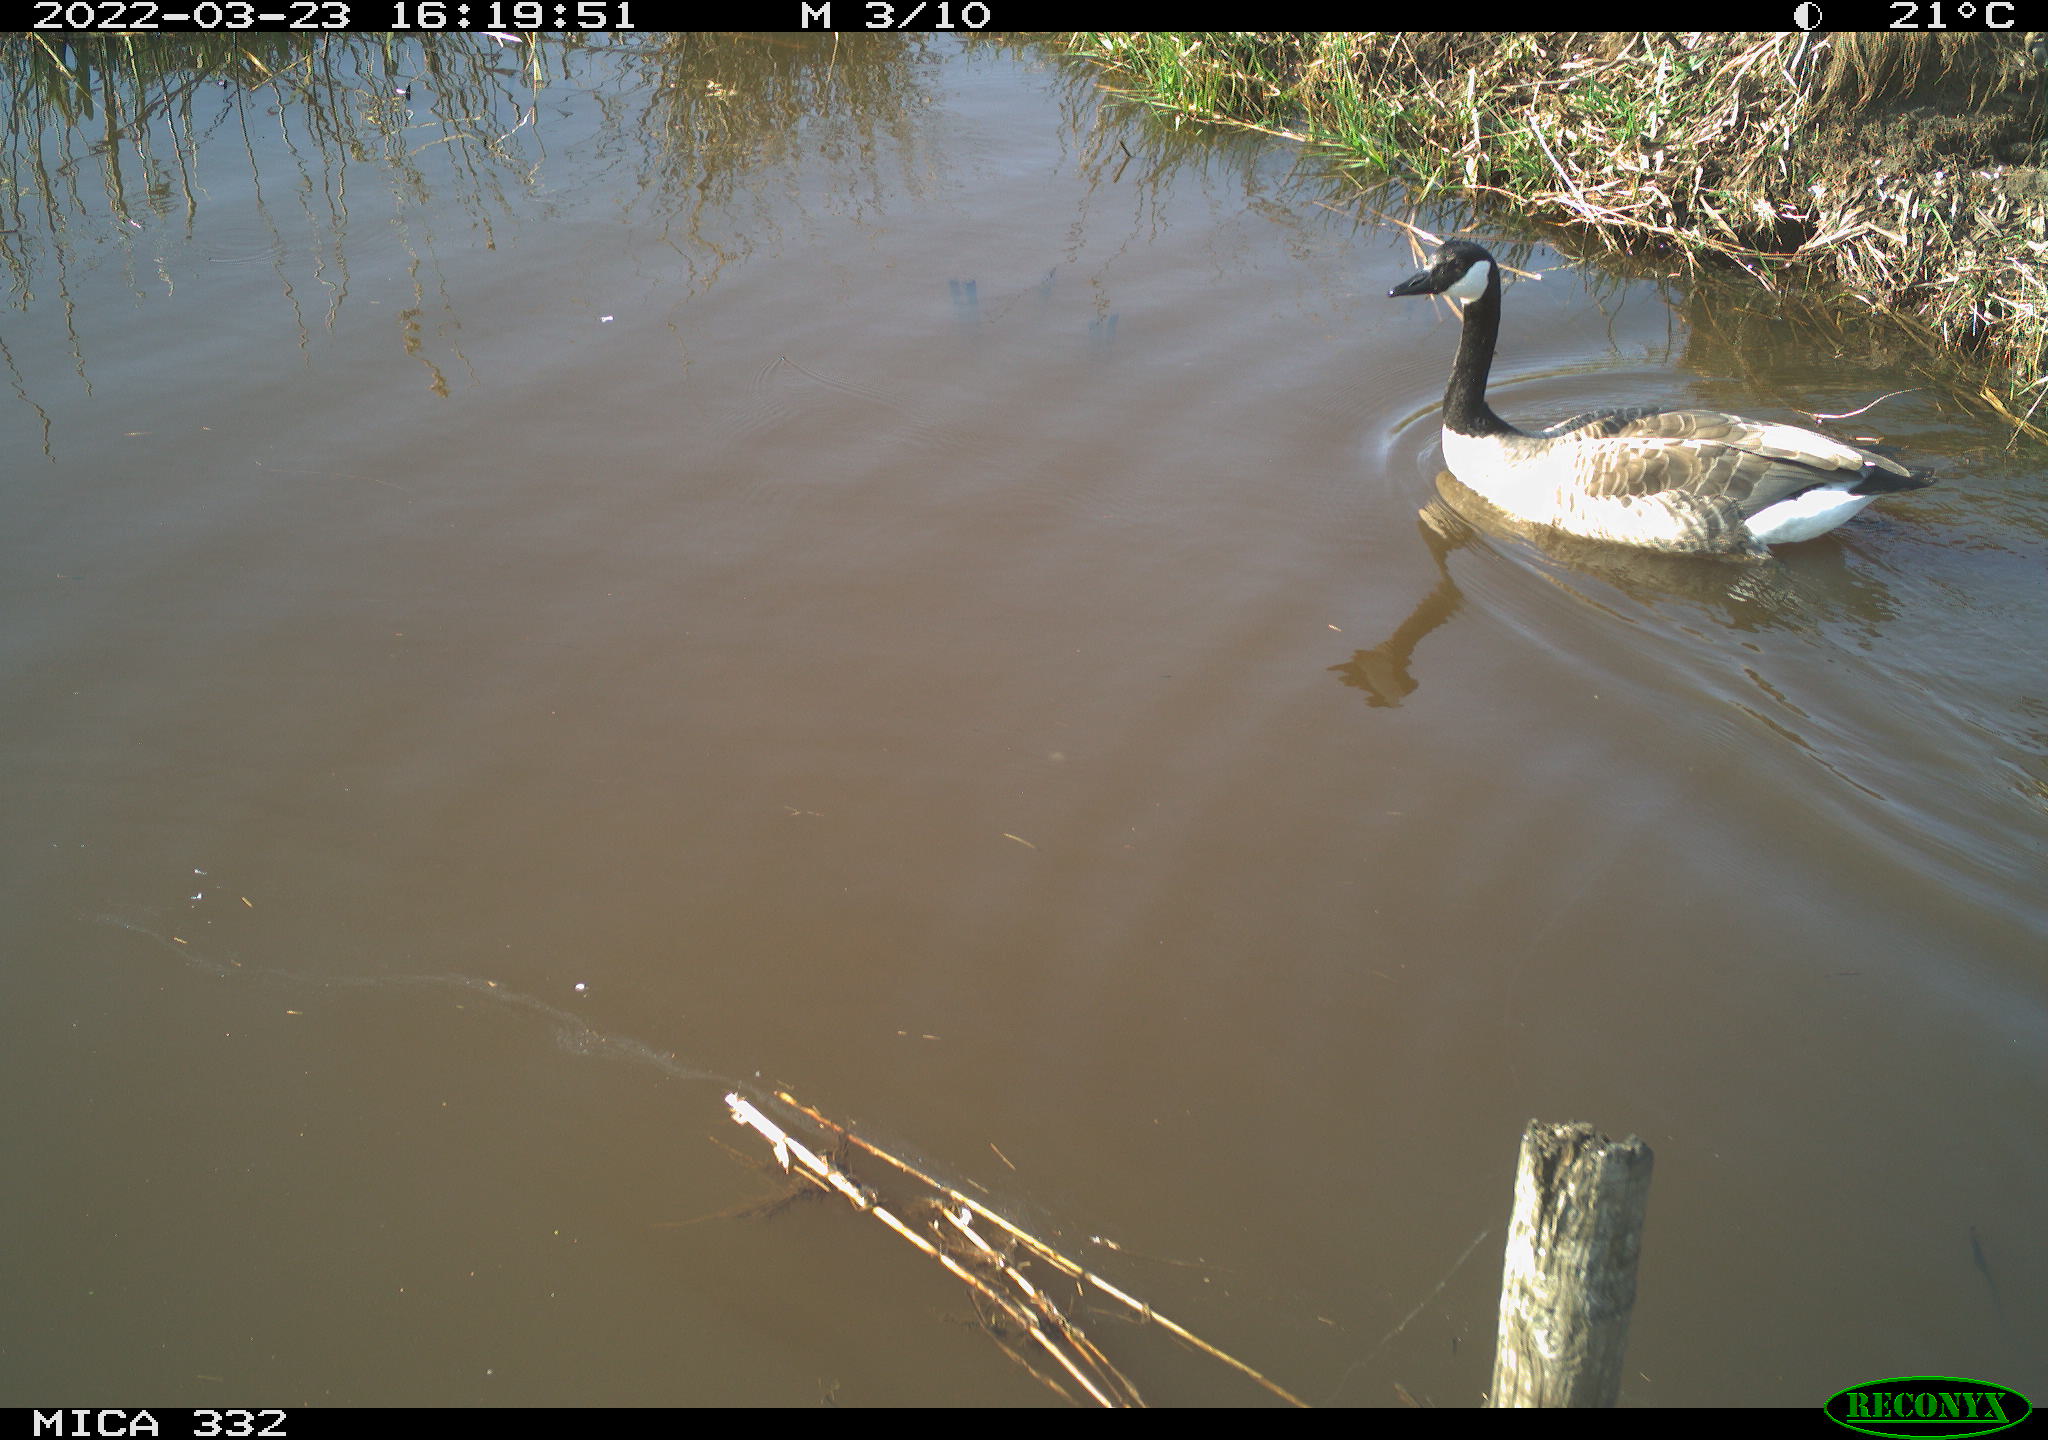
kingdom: Animalia
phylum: Chordata
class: Aves
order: Anseriformes
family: Anatidae
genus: Branta
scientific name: Branta canadensis
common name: Canada goose
